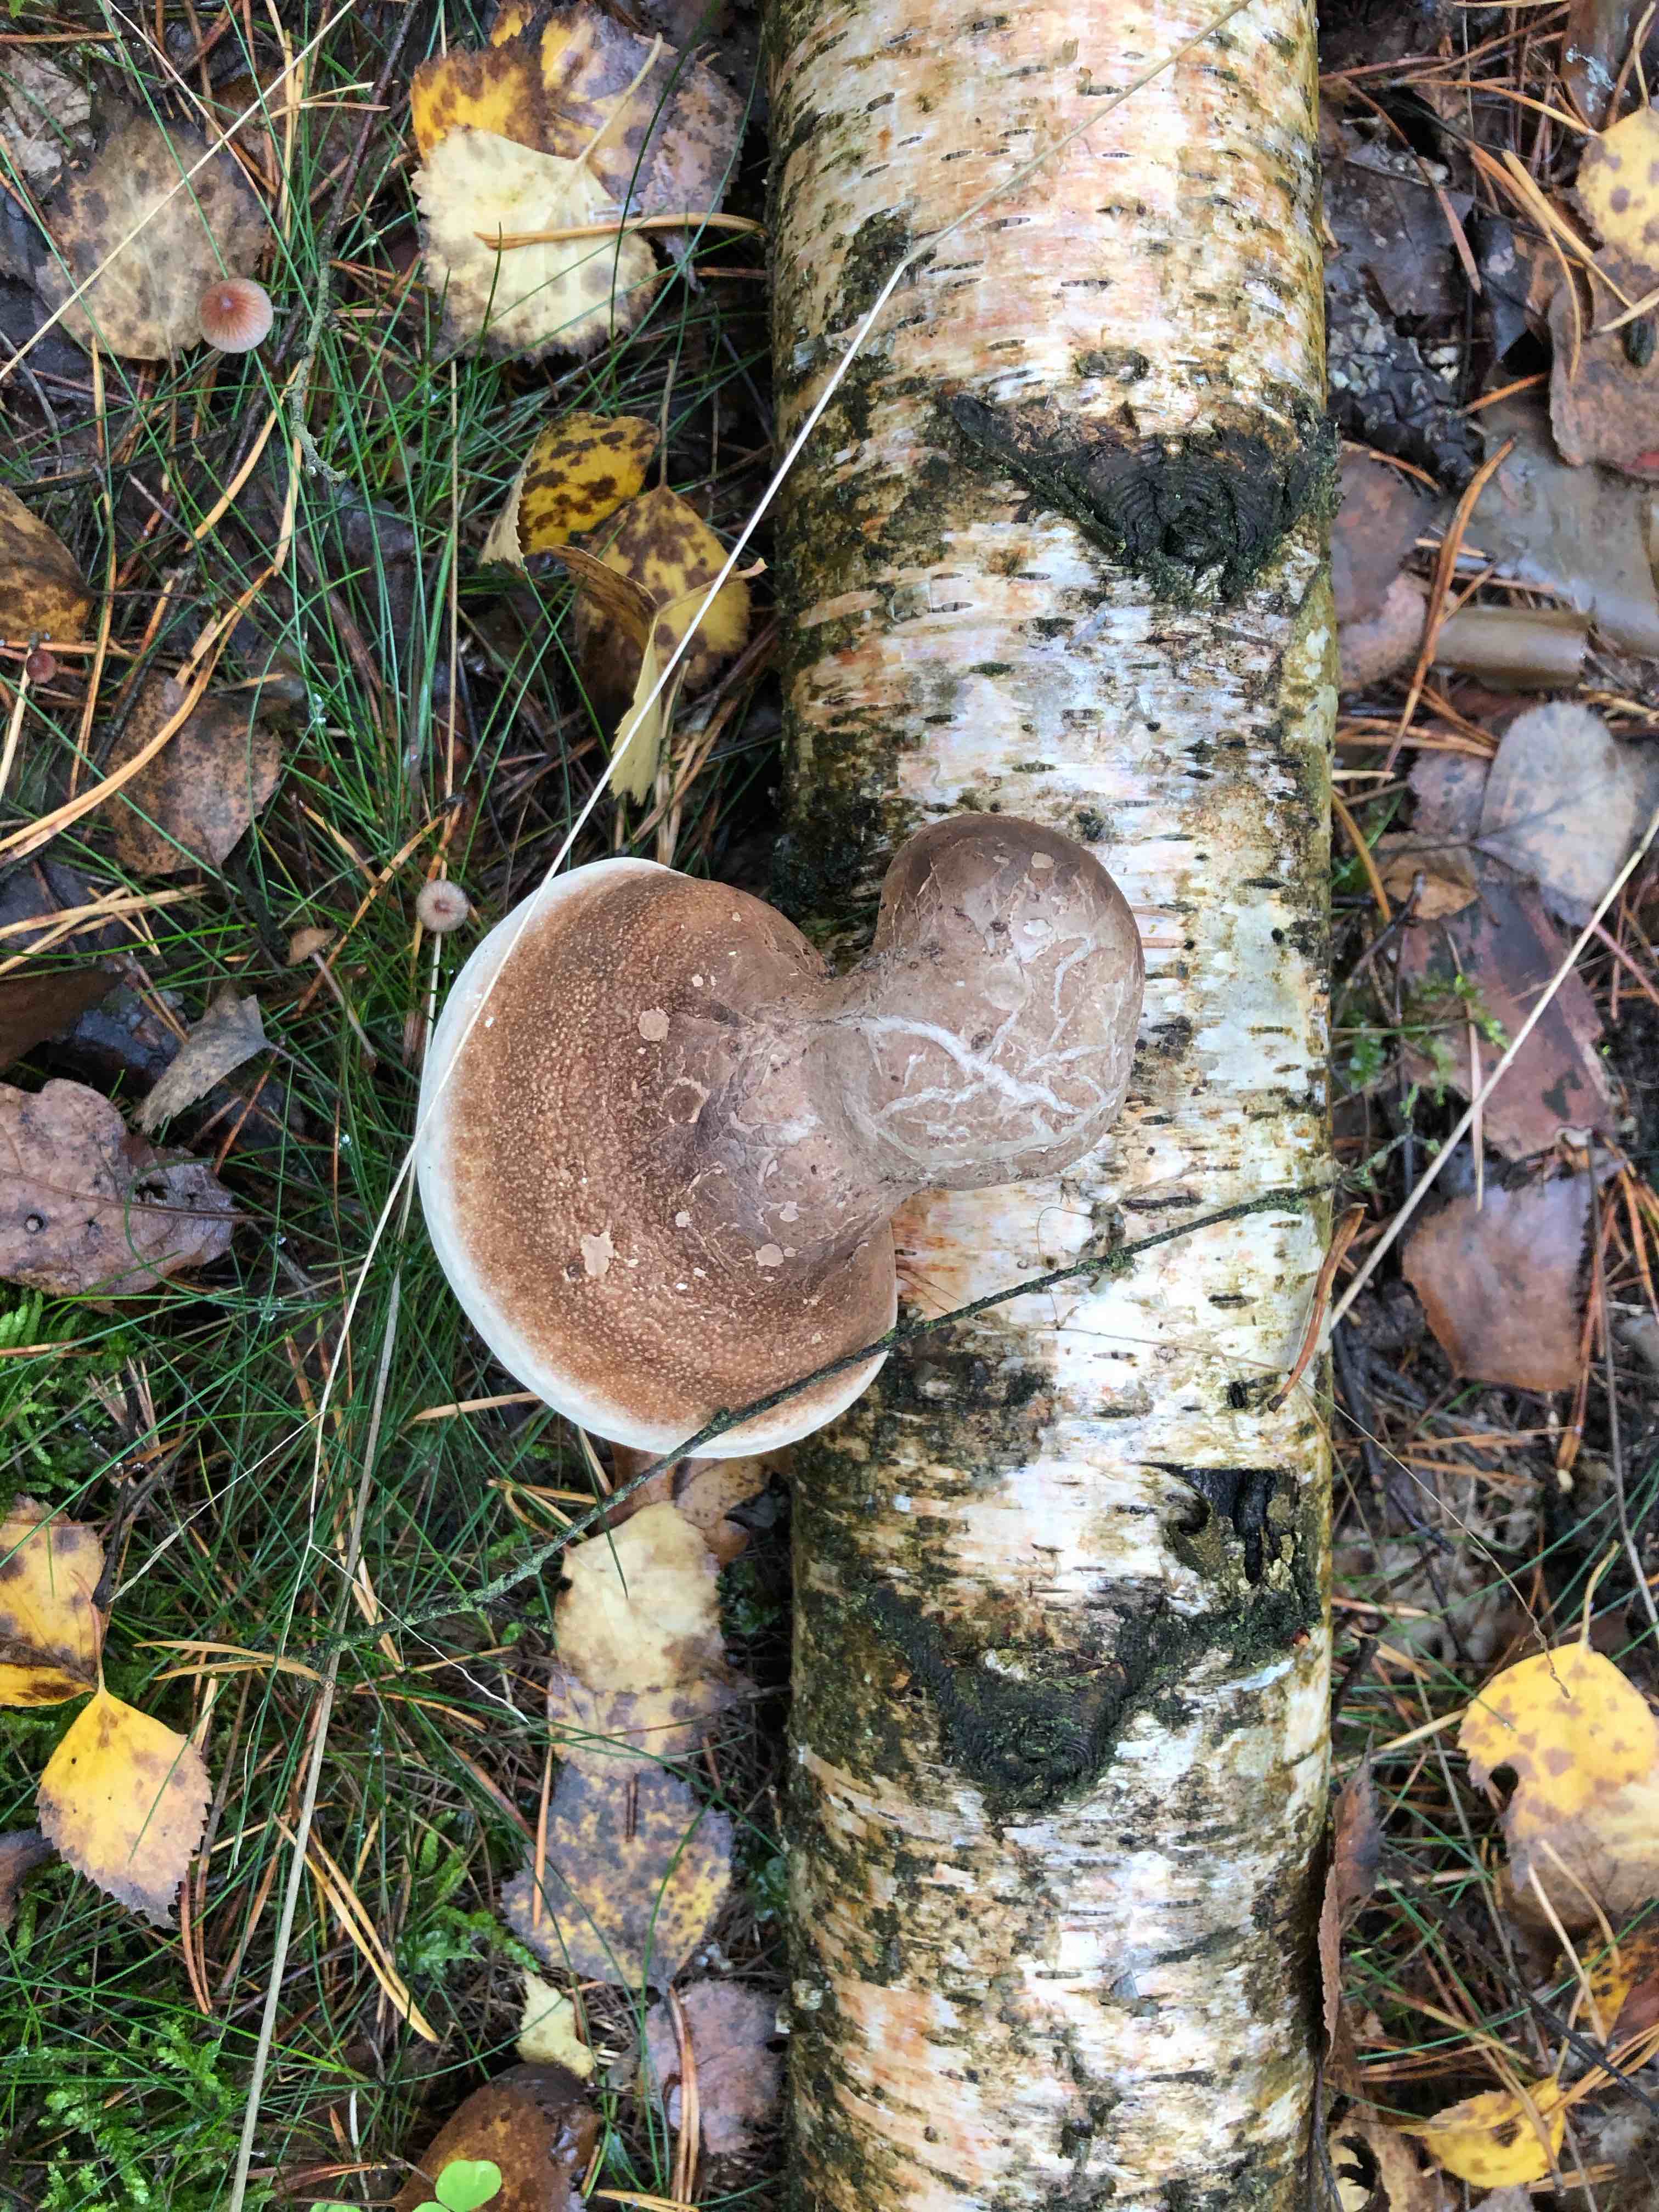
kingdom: Fungi
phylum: Basidiomycota
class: Agaricomycetes
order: Polyporales
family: Fomitopsidaceae
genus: Fomitopsis
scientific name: Fomitopsis betulina
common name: birkeporesvamp
